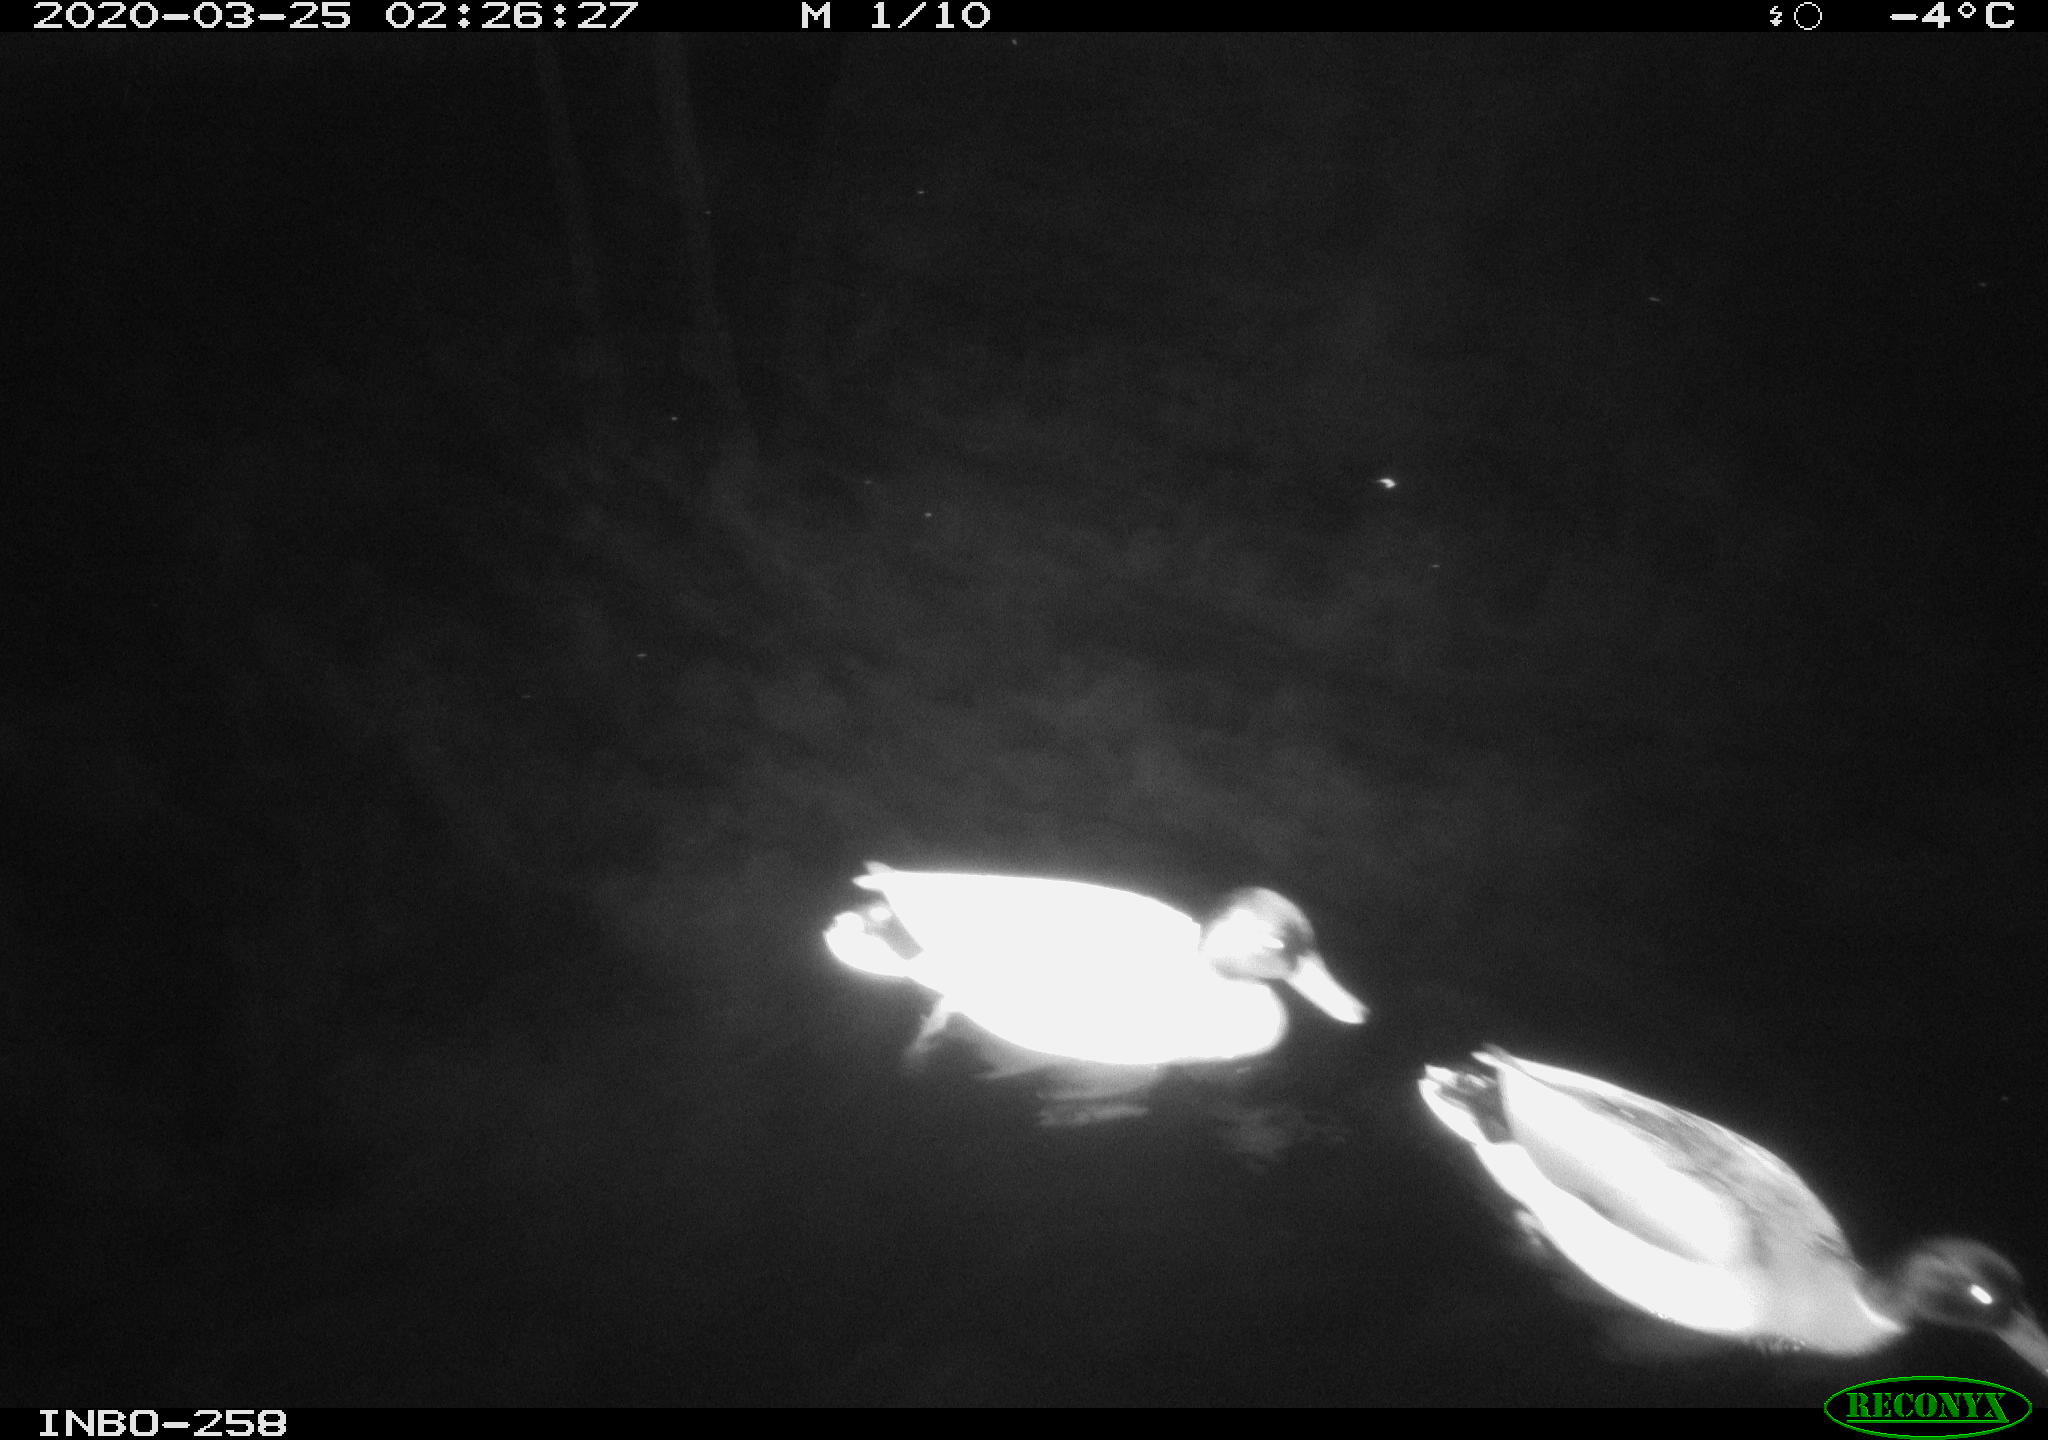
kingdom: Animalia
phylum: Chordata
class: Aves
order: Anseriformes
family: Anatidae
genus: Anas
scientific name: Anas platyrhynchos
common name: Mallard
